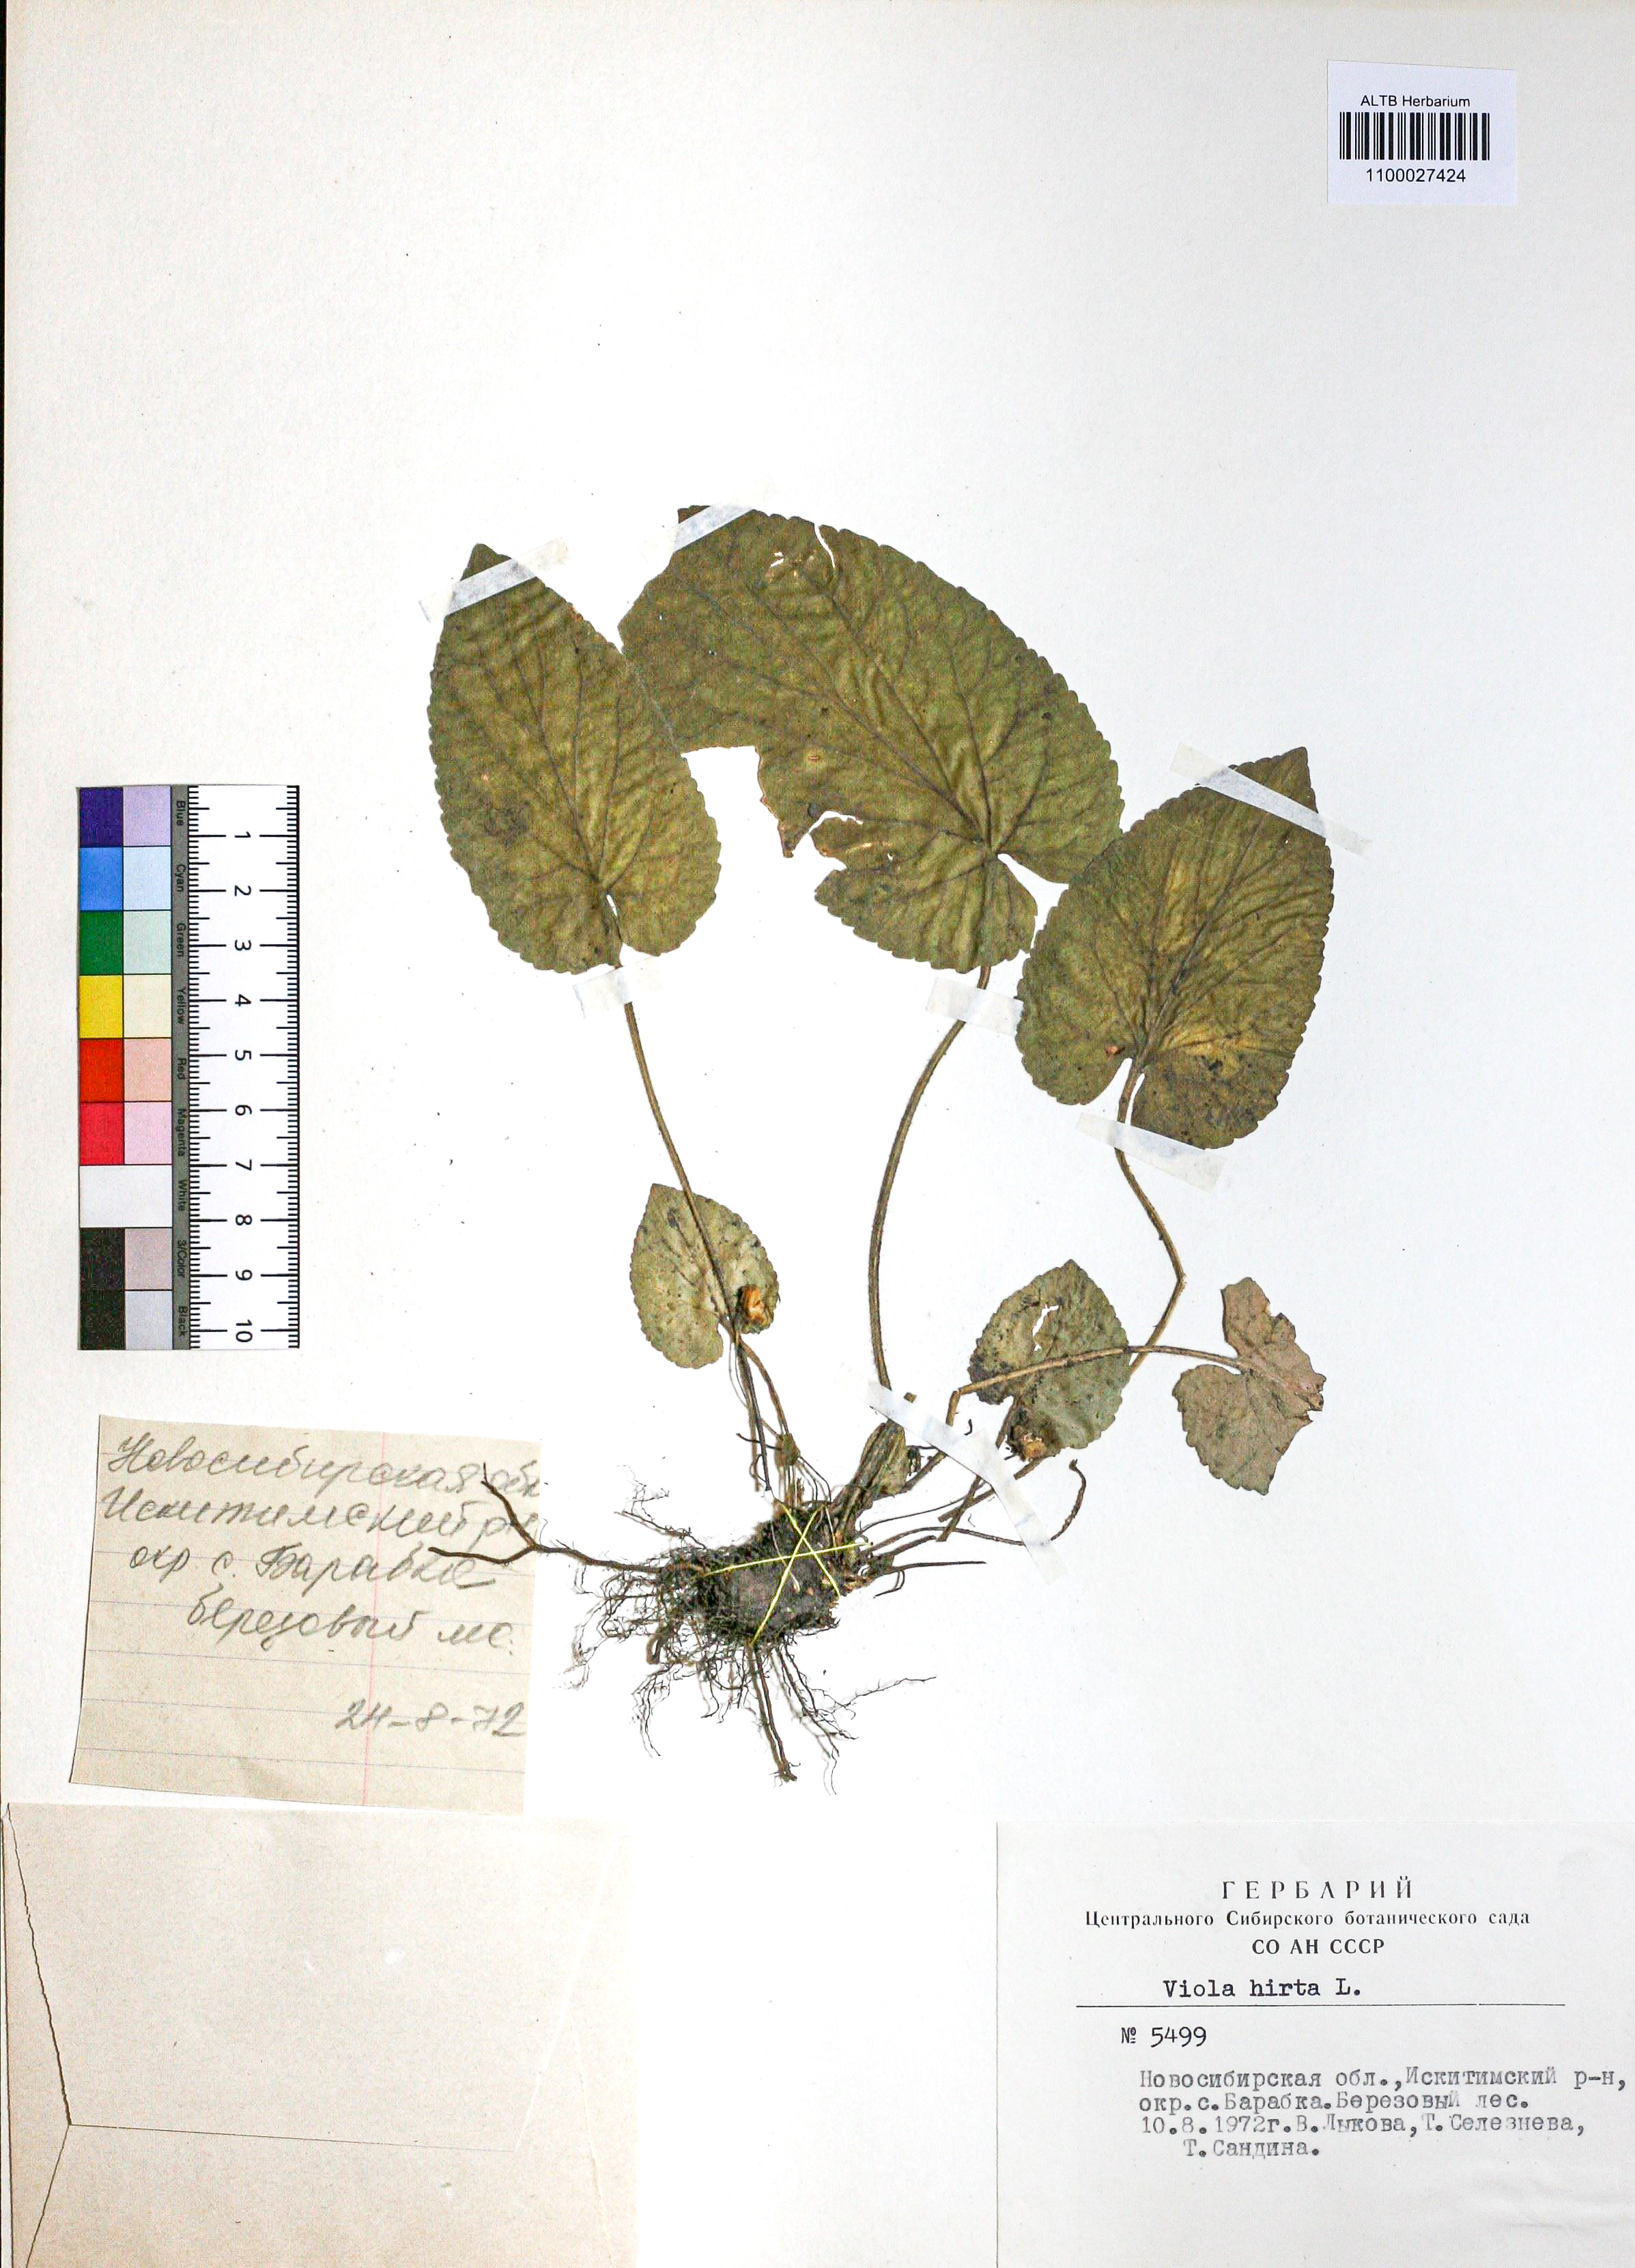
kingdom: Plantae
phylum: Tracheophyta
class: Magnoliopsida
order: Malpighiales
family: Violaceae
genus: Viola
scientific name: Viola hirta
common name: Hairy violet
